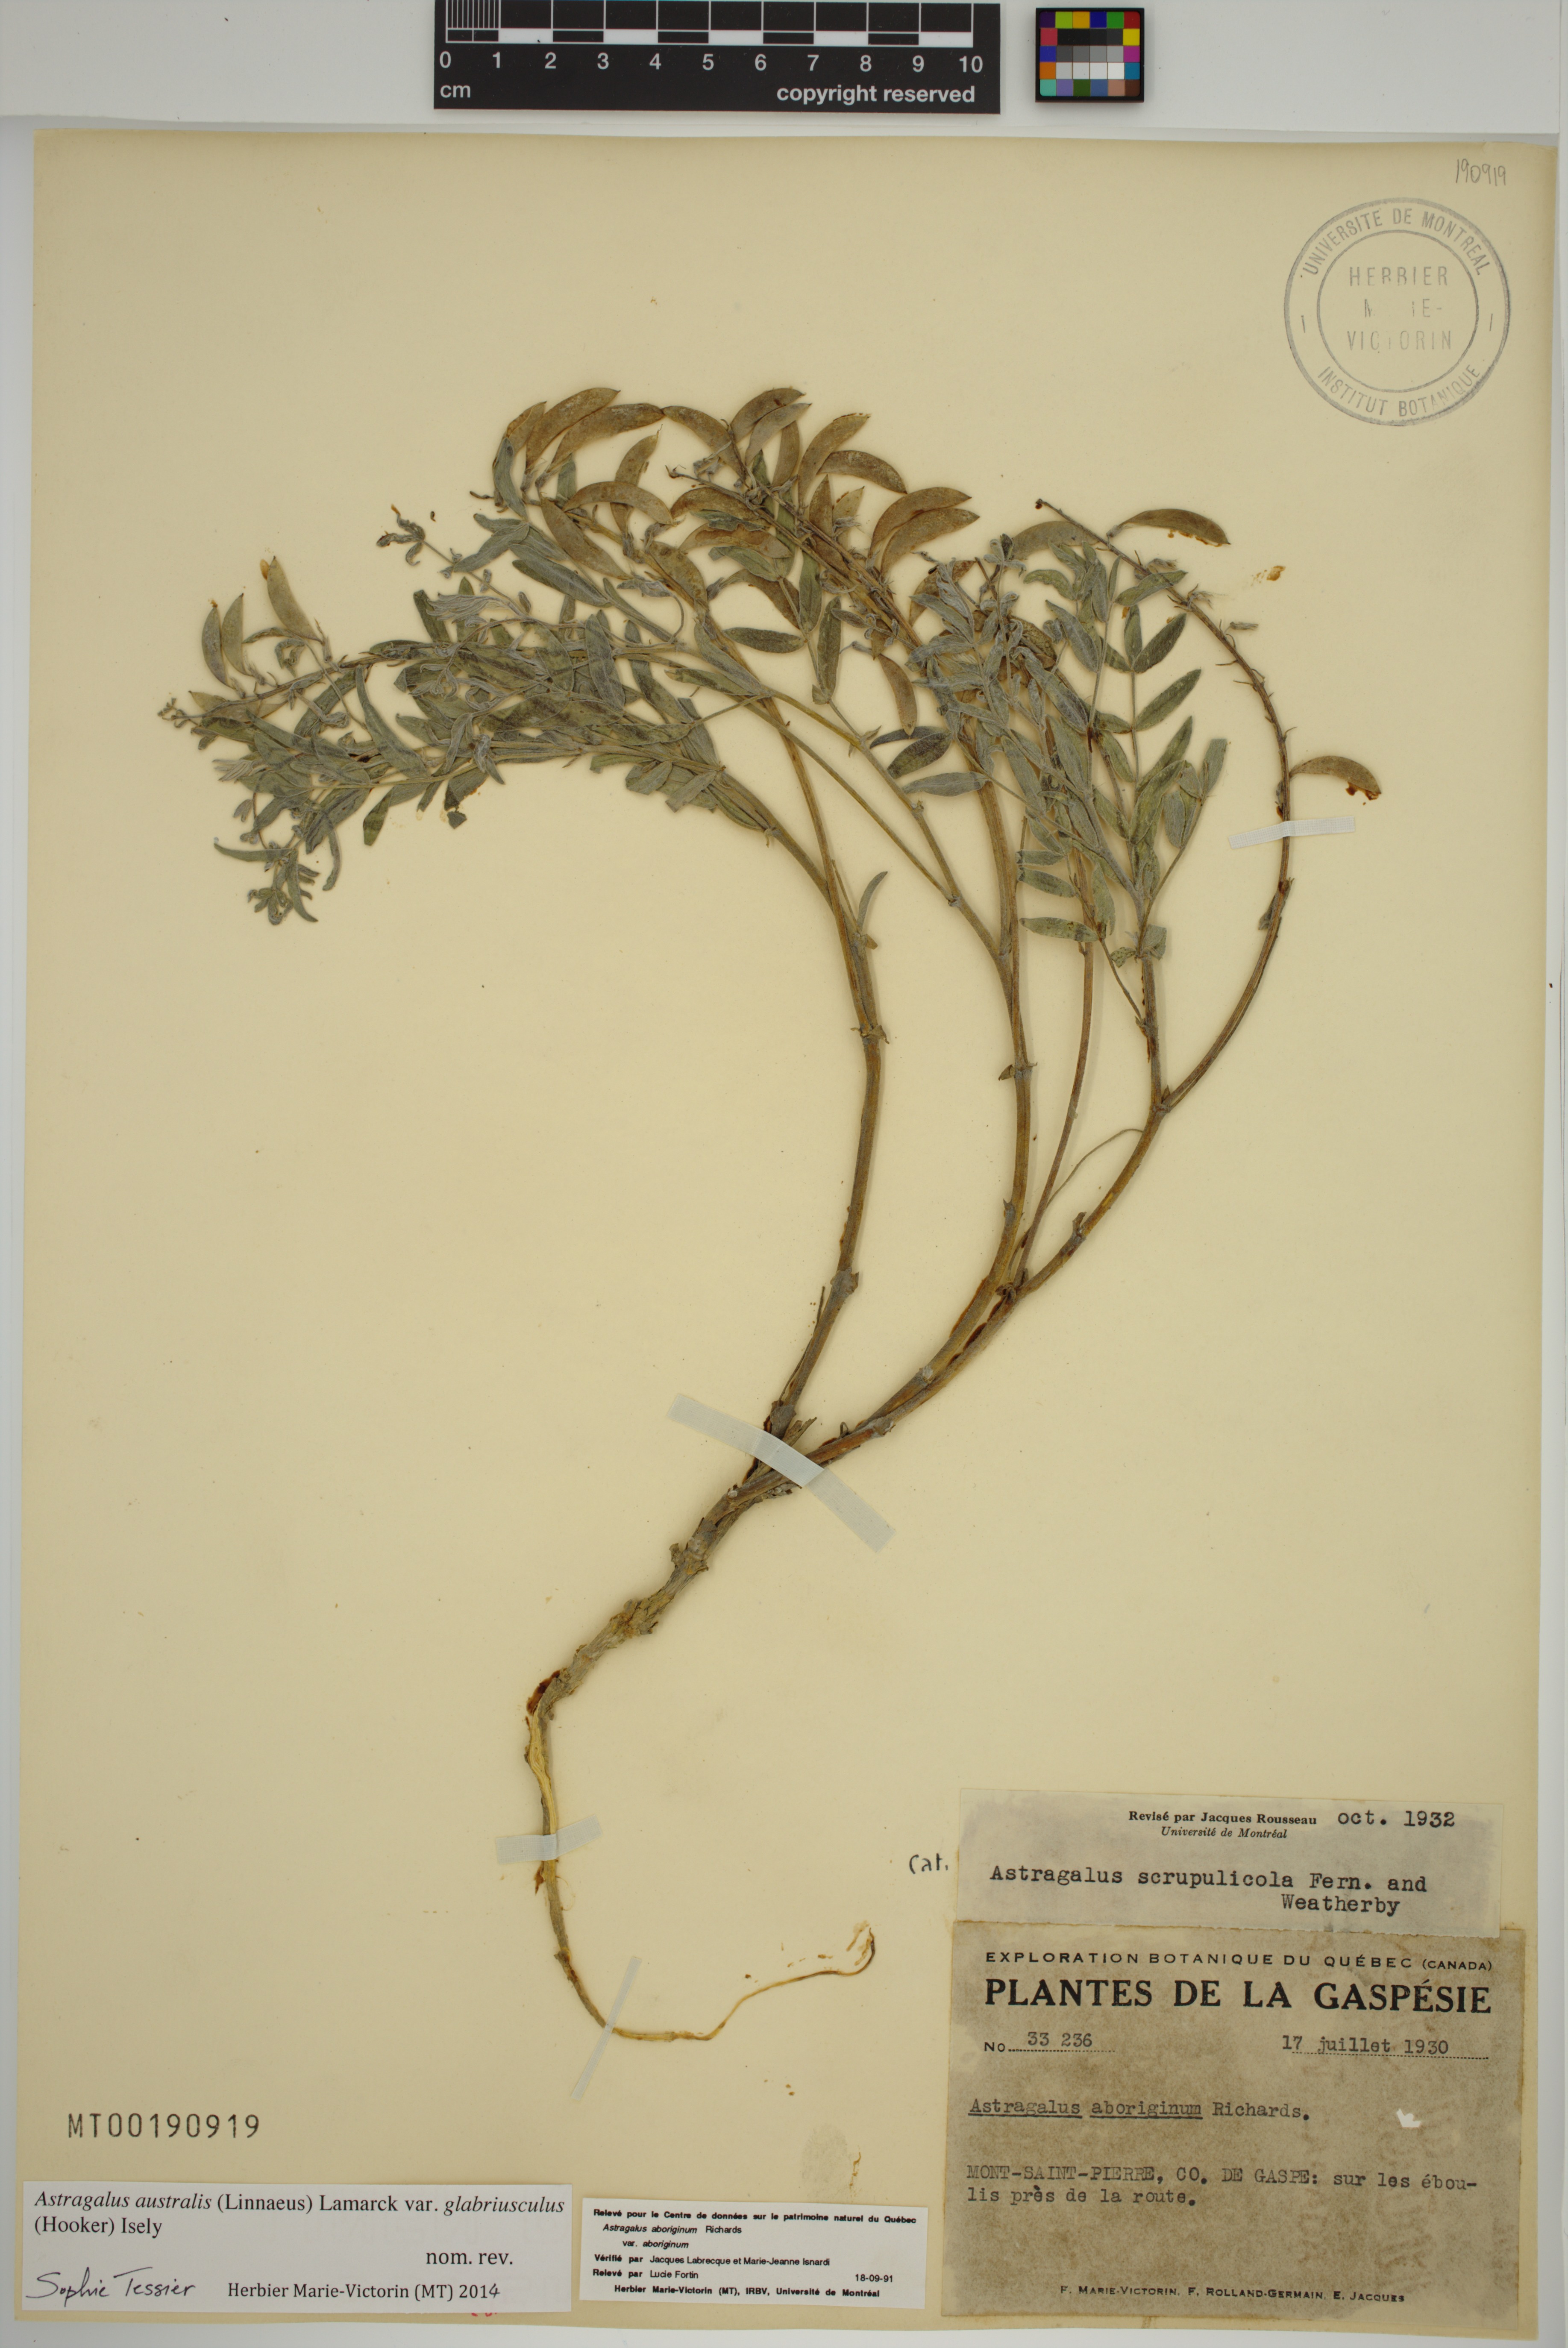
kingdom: Plantae
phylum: Tracheophyta
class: Magnoliopsida
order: Fabales
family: Fabaceae
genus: Astragalus
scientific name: Astragalus aboriginorum
